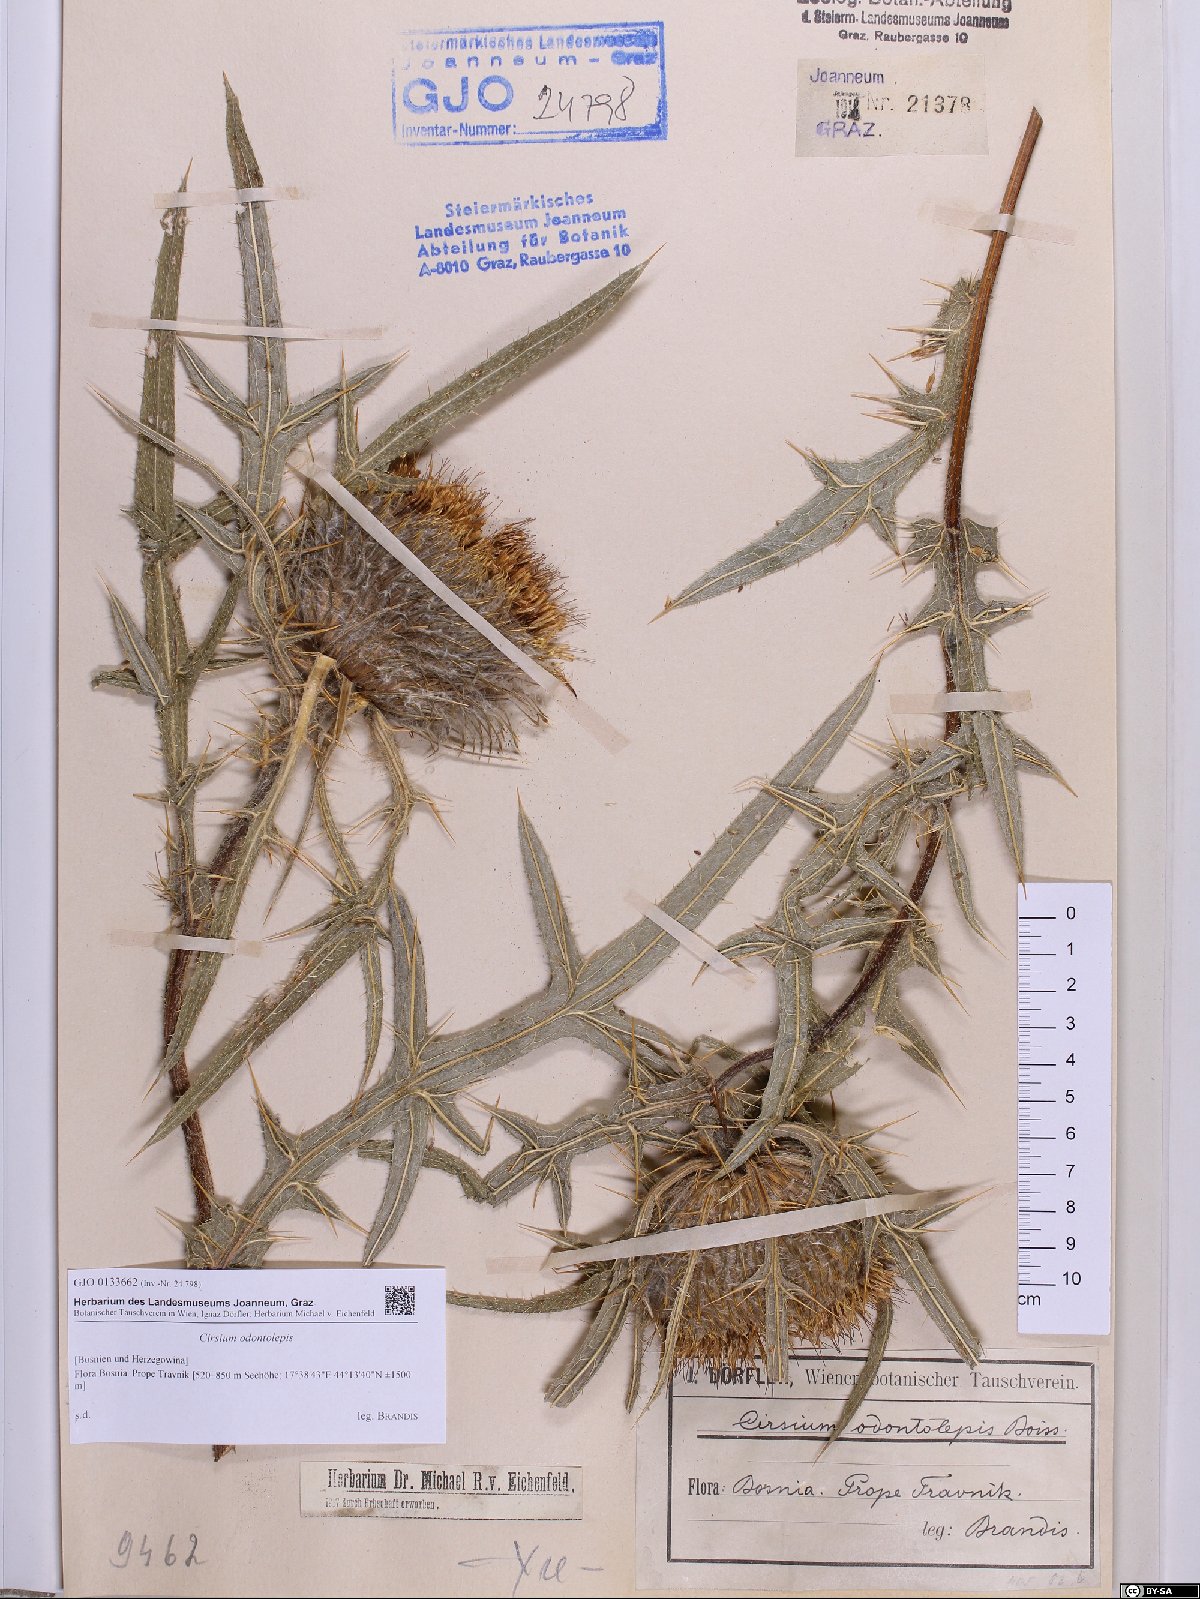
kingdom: Plantae
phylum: Tracheophyta
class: Magnoliopsida
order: Asterales
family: Asteraceae
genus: Lophiolepis
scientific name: Lophiolepis odontolepis
